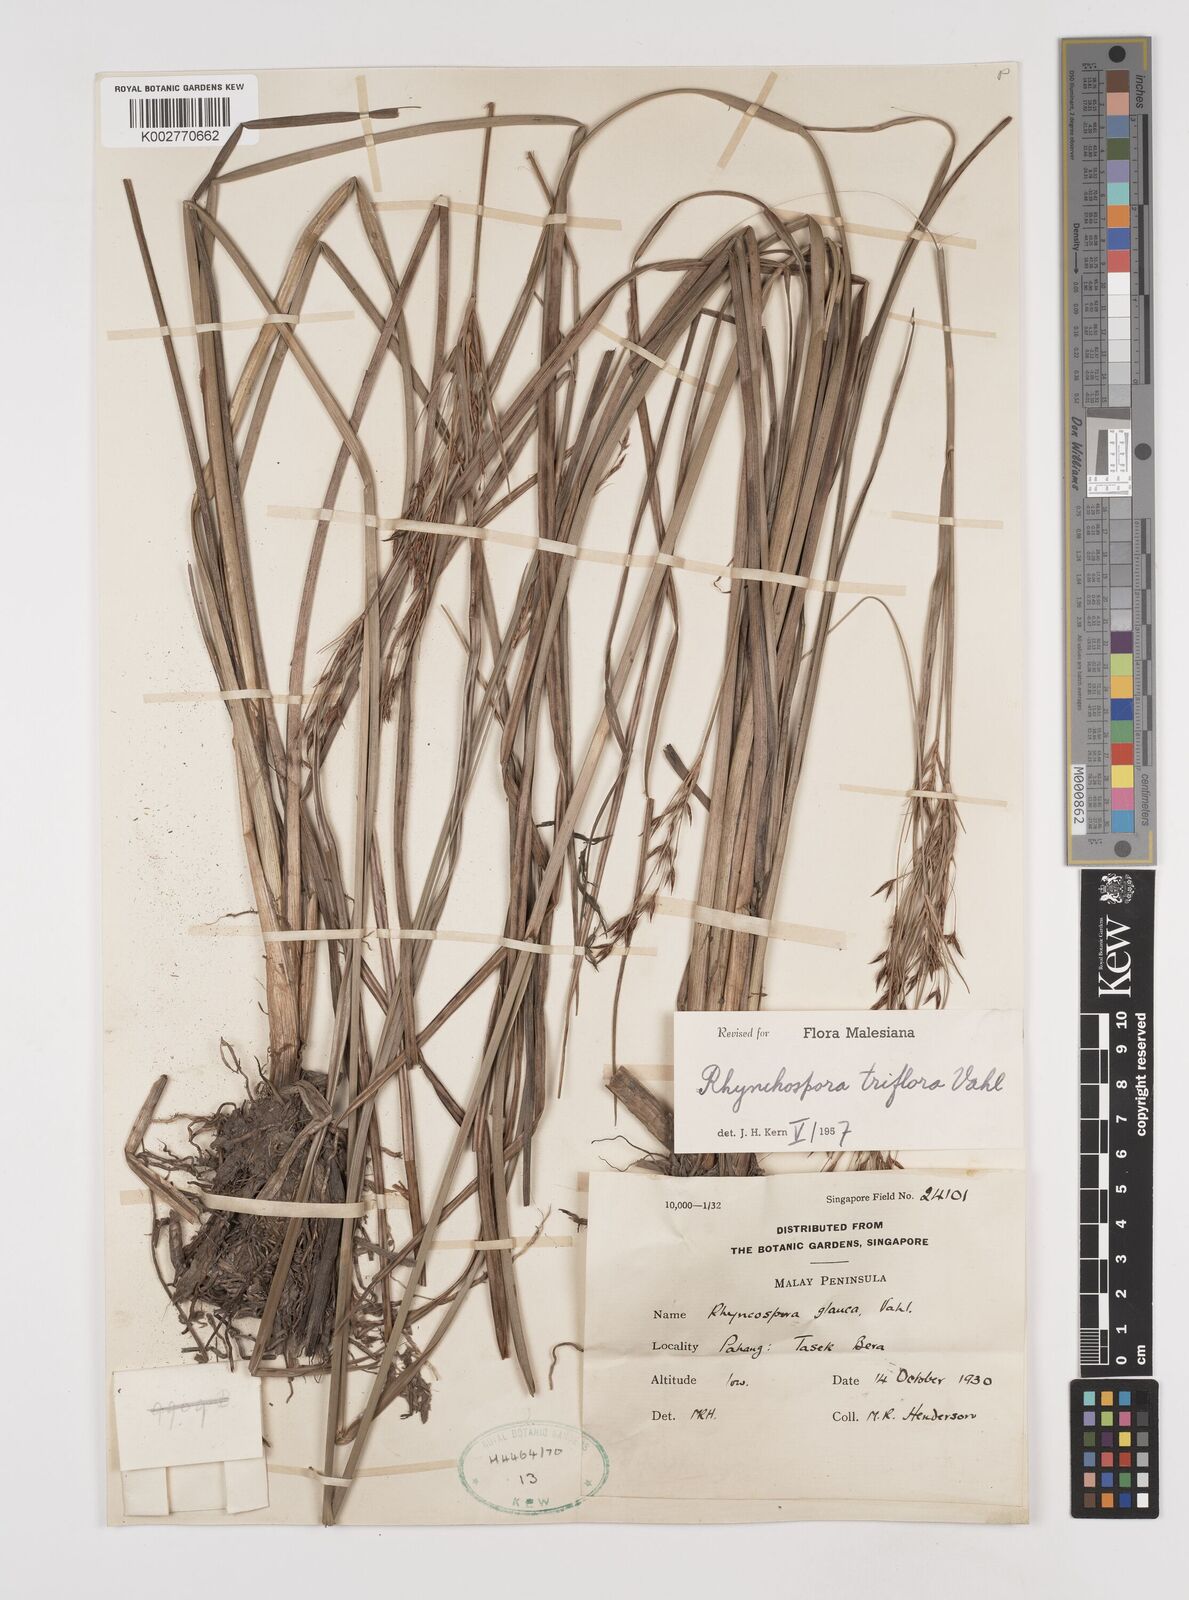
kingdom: Plantae
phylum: Tracheophyta
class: Liliopsida
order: Poales
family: Cyperaceae
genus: Rhynchospora
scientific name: Rhynchospora triflora
